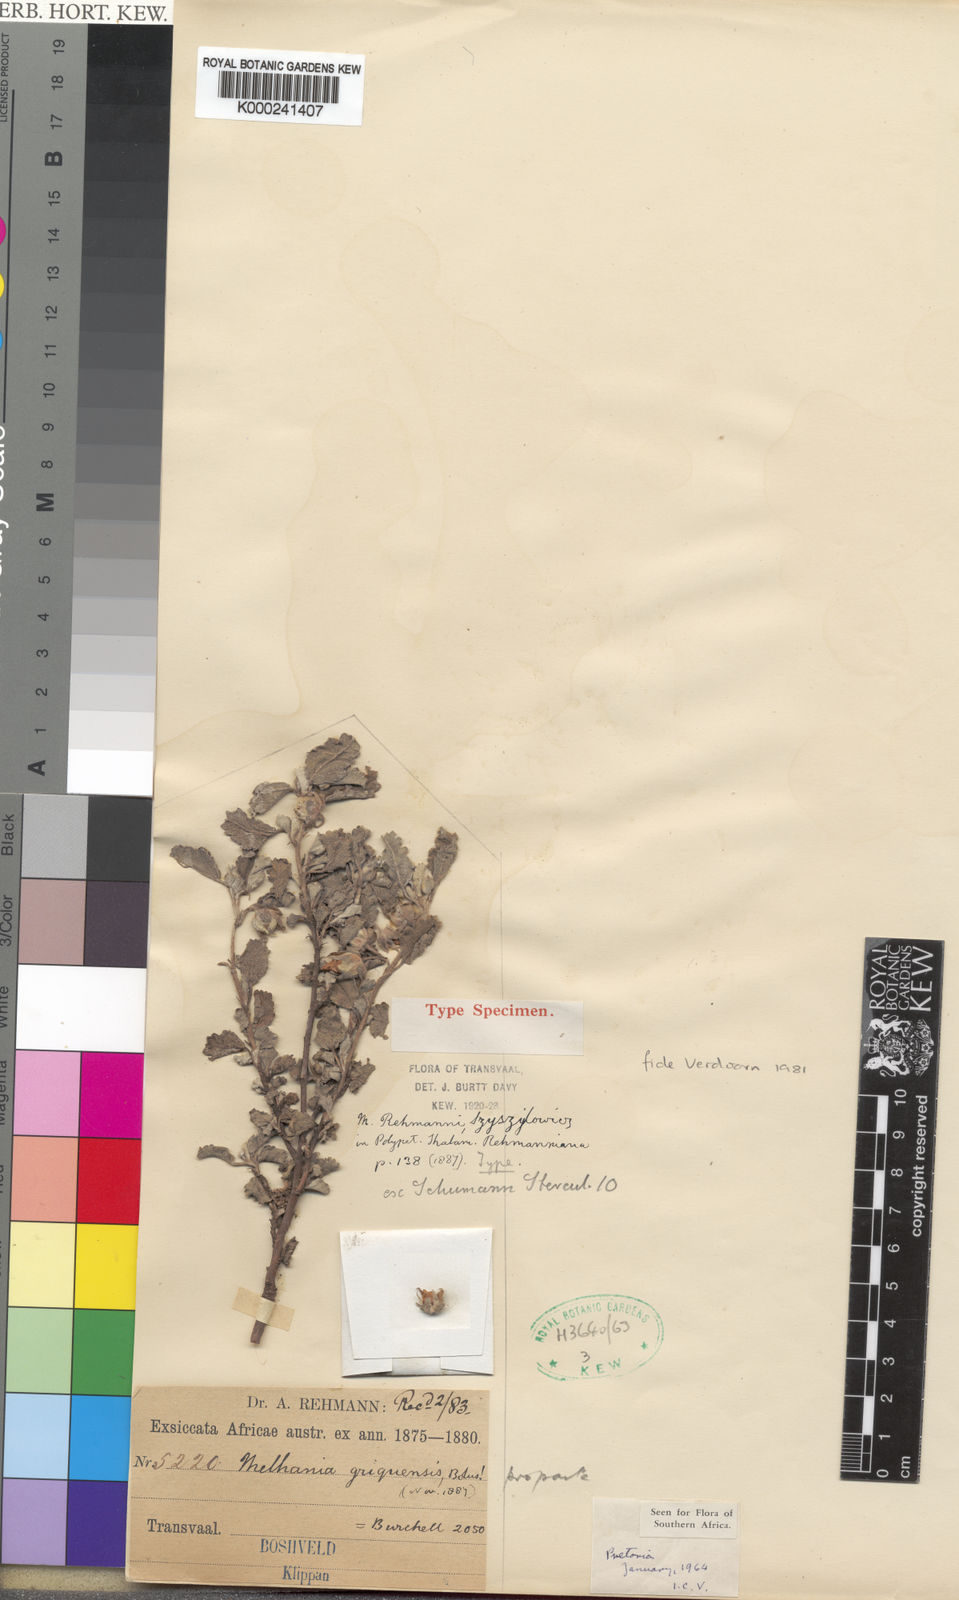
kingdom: Plantae
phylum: Tracheophyta
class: Magnoliopsida
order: Malvales
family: Malvaceae
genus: Melhania
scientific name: Melhania rehmannii
